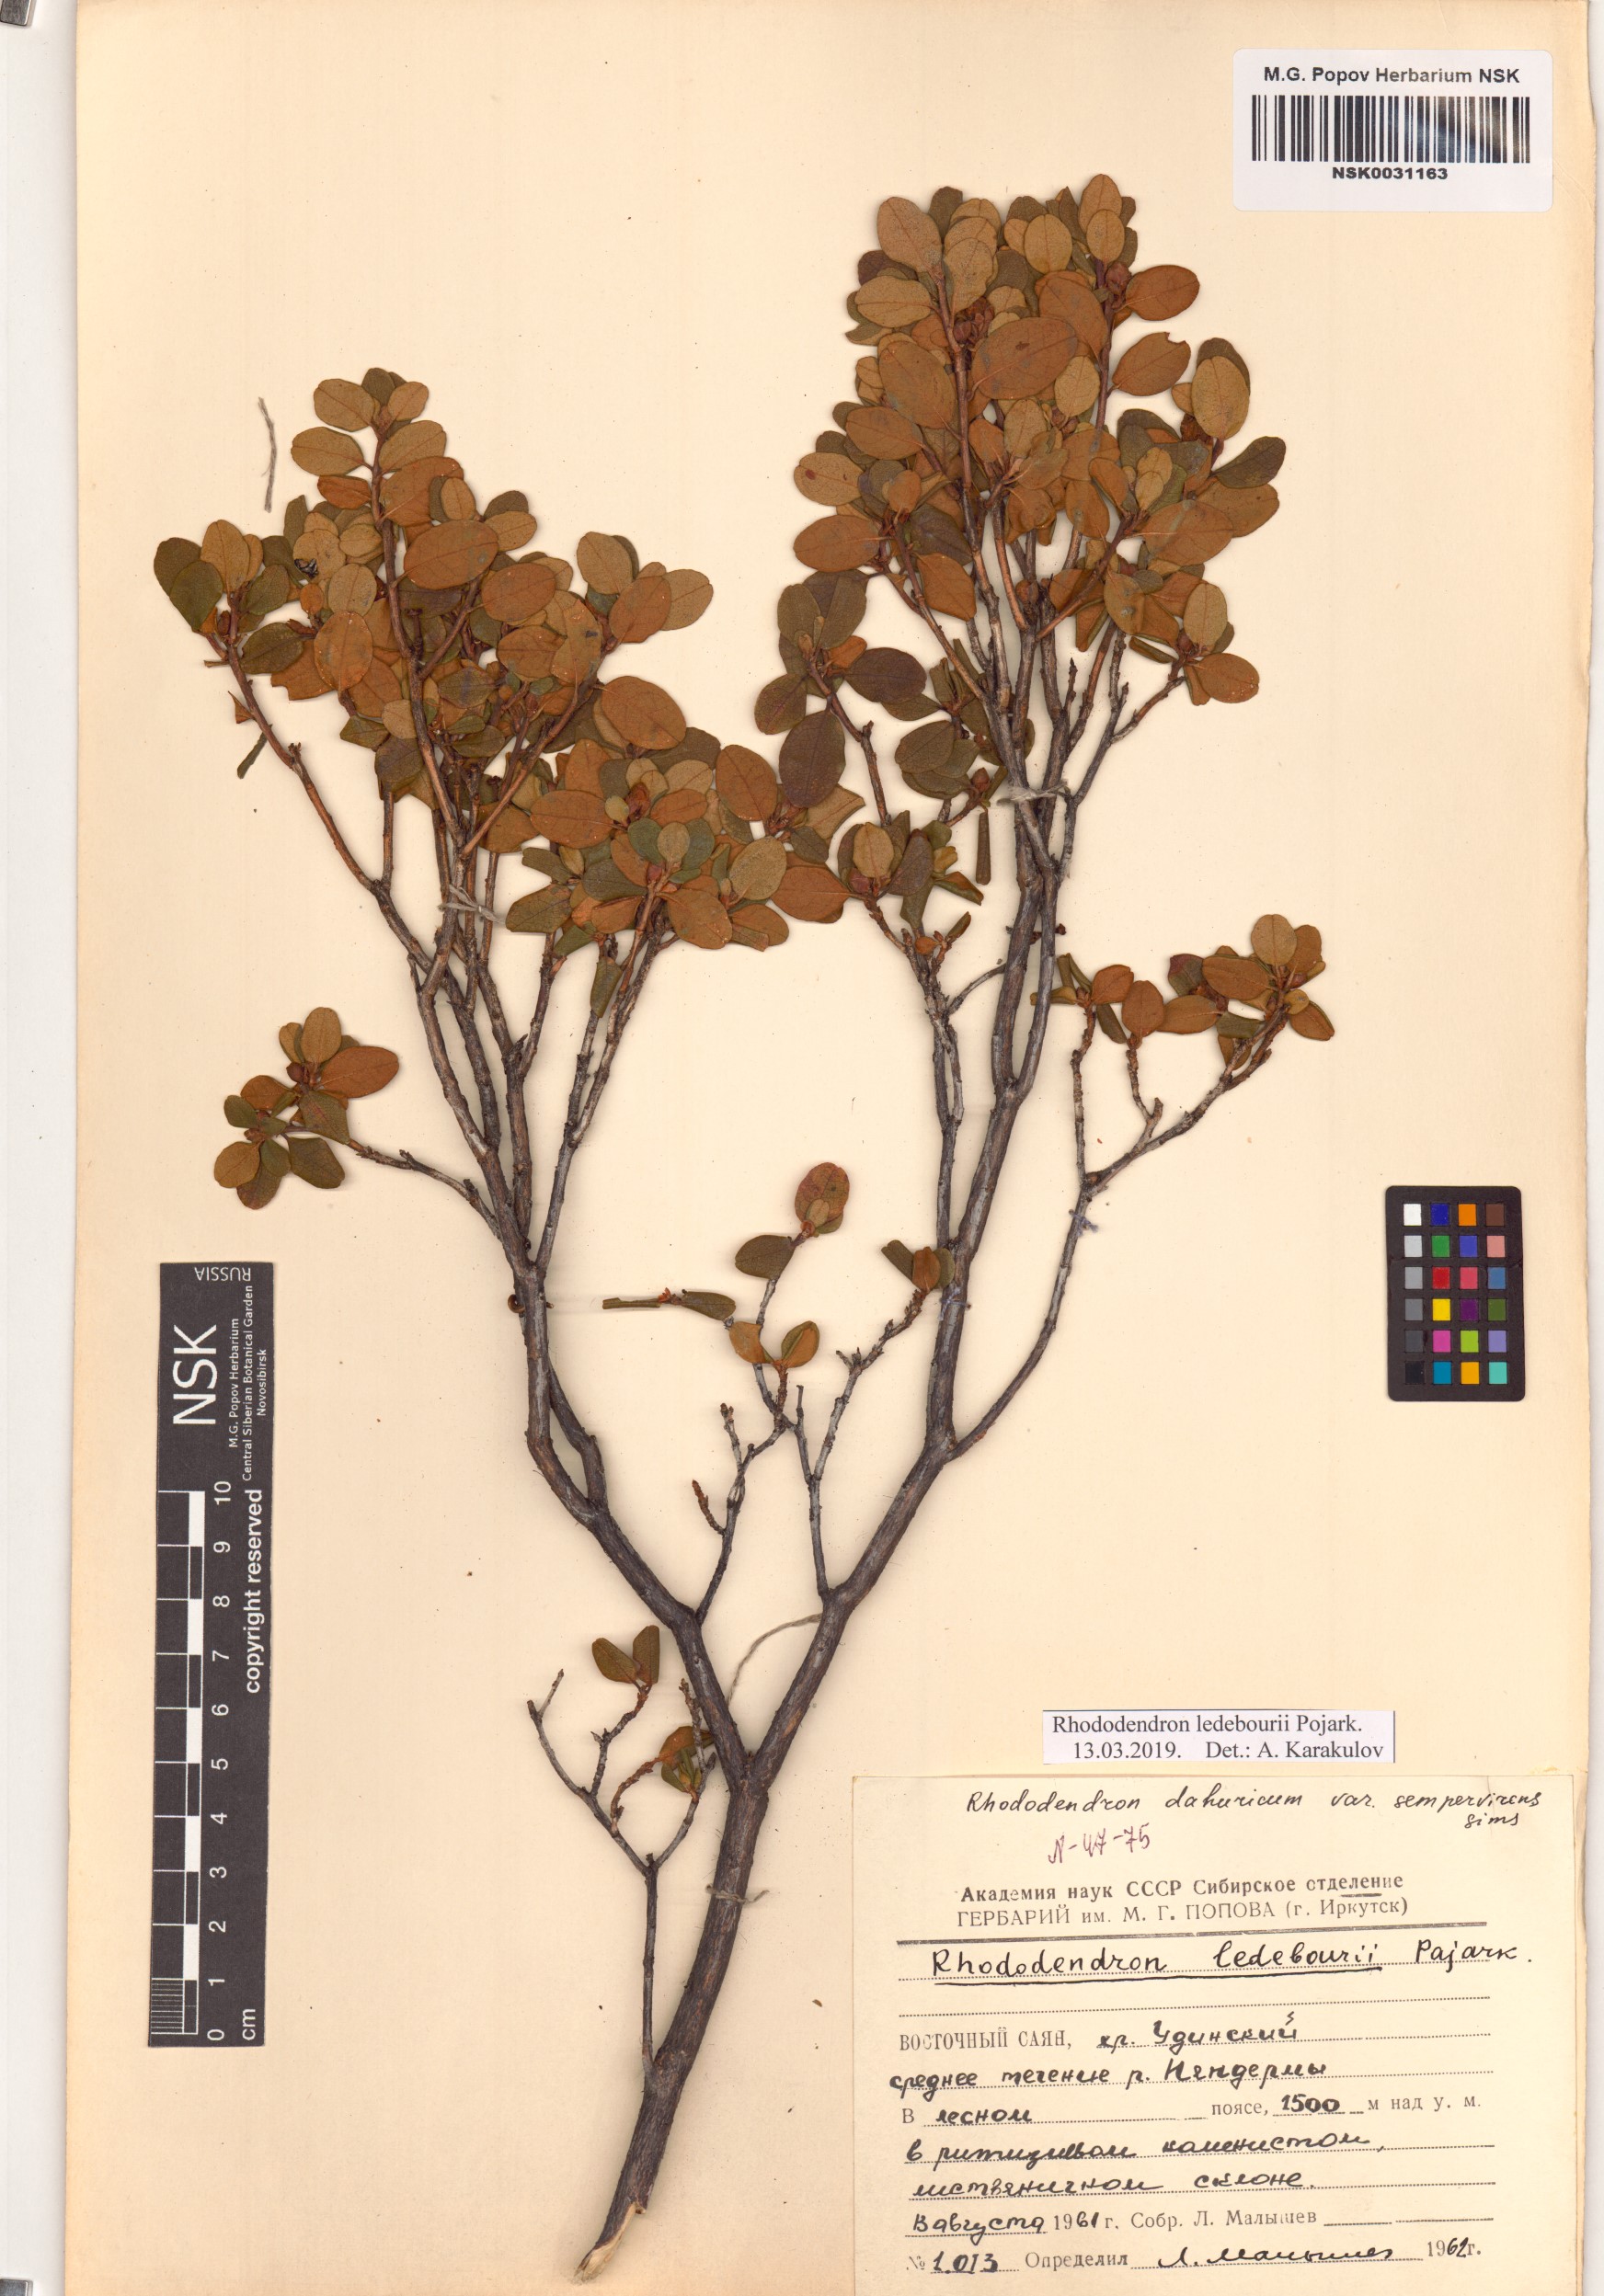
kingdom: Plantae
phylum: Tracheophyta
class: Magnoliopsida
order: Ericales
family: Ericaceae
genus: Rhododendron
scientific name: Rhododendron dauricum
